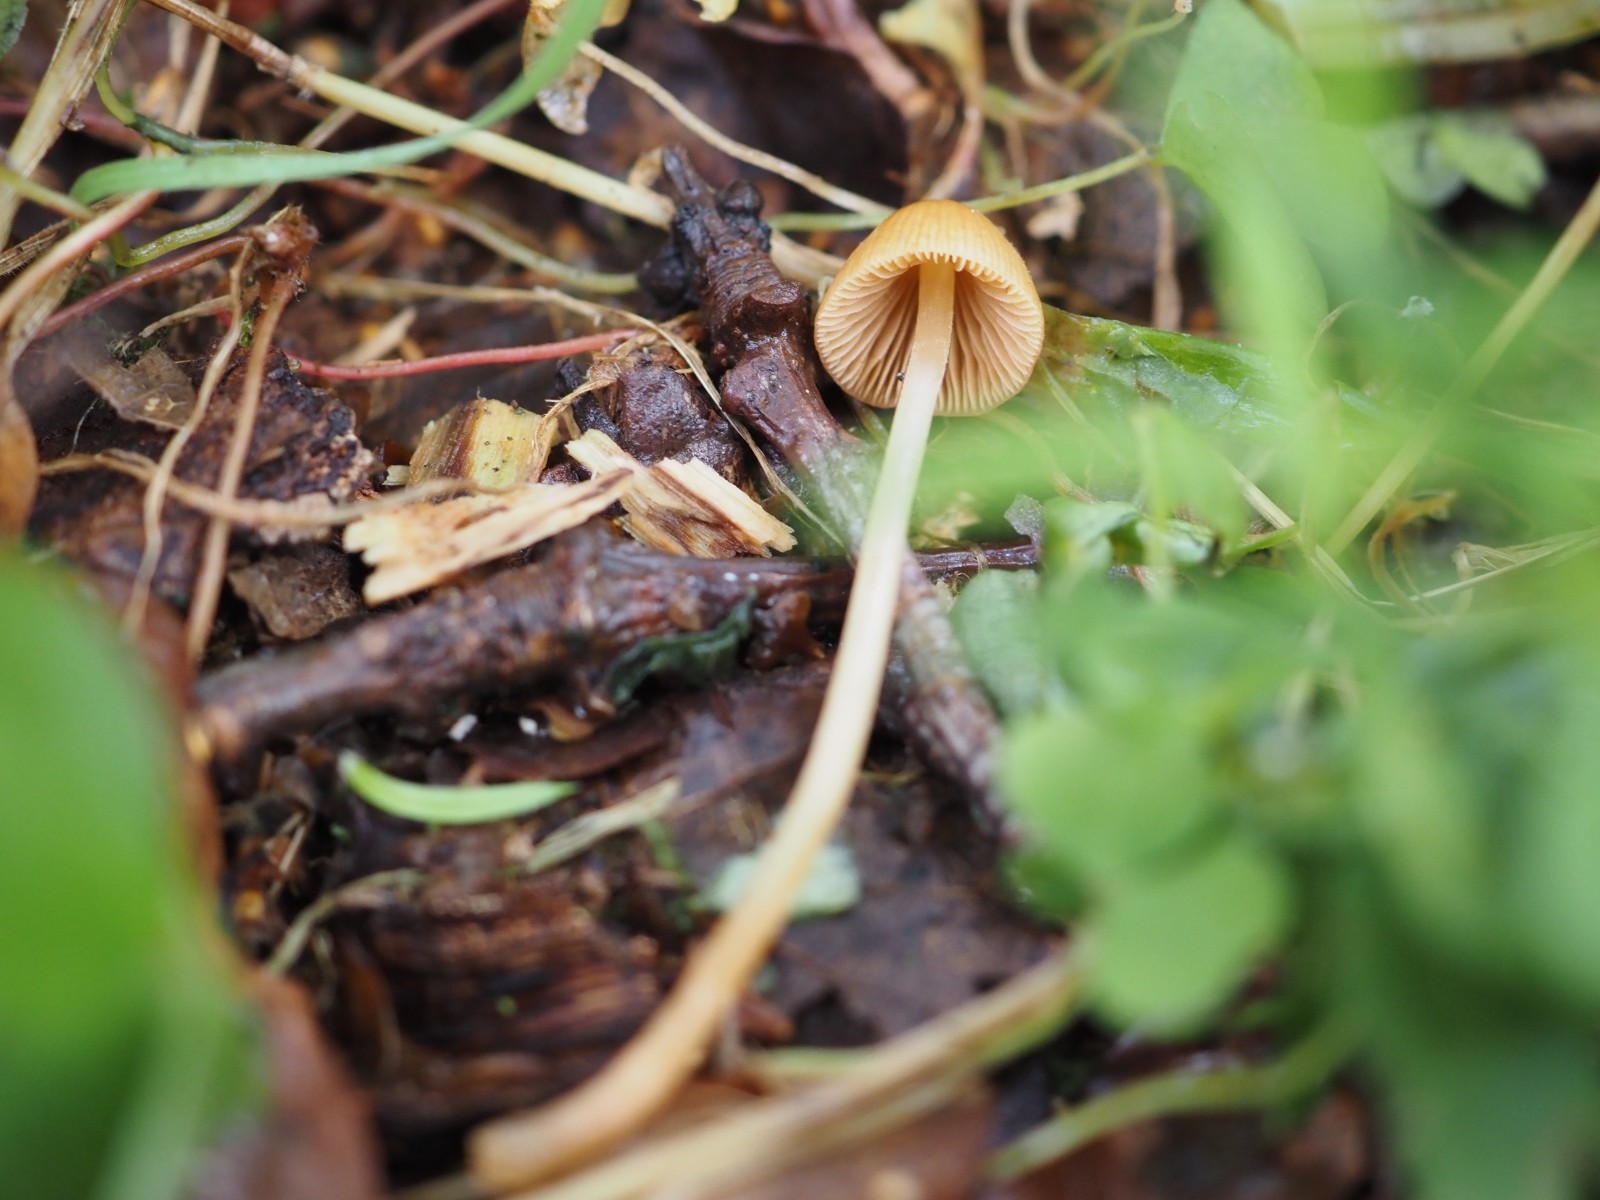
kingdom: Fungi
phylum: Basidiomycota
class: Agaricomycetes
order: Agaricales
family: Bolbitiaceae
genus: Conocybe
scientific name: Conocybe
